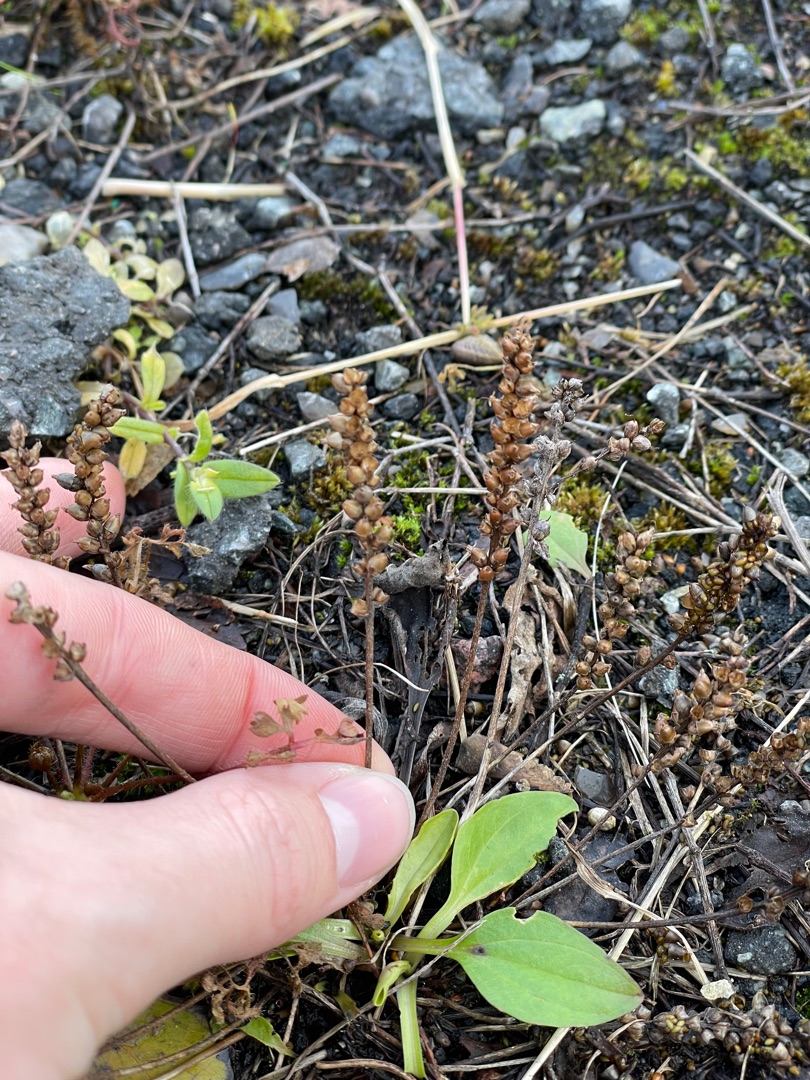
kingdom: Plantae
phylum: Tracheophyta
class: Magnoliopsida
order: Lamiales
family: Plantaginaceae
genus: Plantago
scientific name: Plantago major
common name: Glat vejbred
